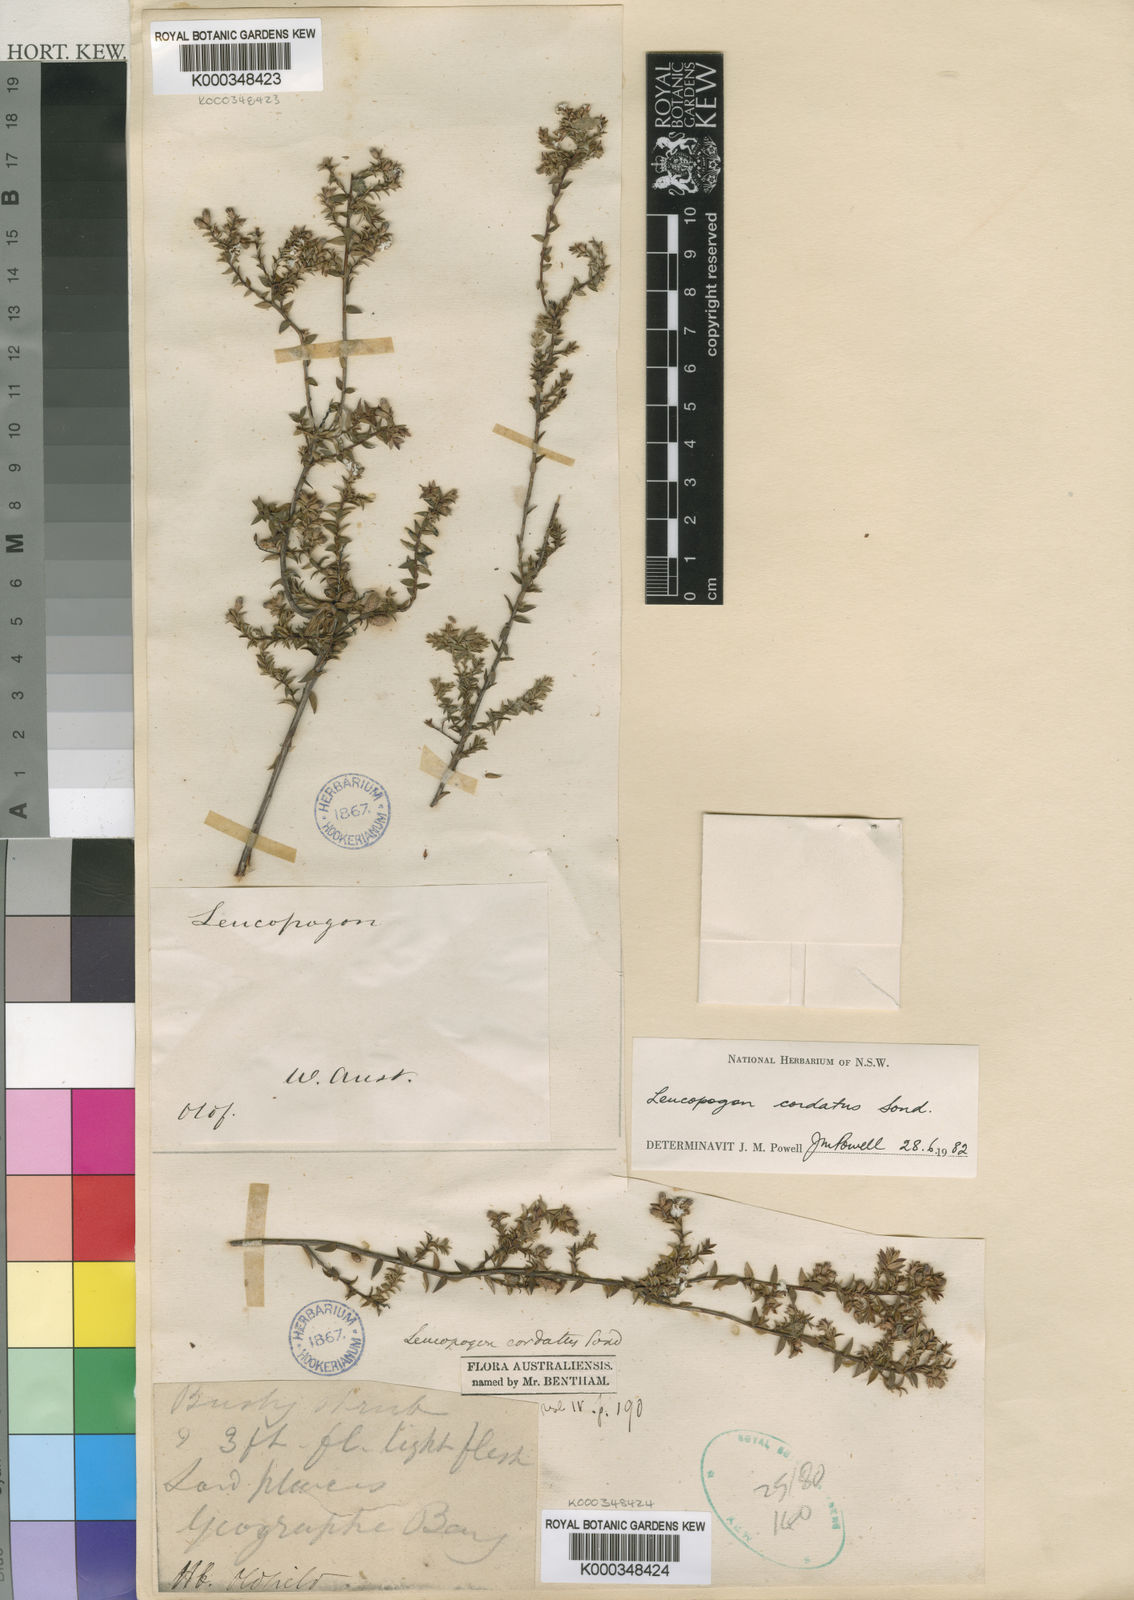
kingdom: Plantae
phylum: Tracheophyta
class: Magnoliopsida
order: Ericales
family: Ericaceae
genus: Leucopogon
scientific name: Leucopogon cordatus
